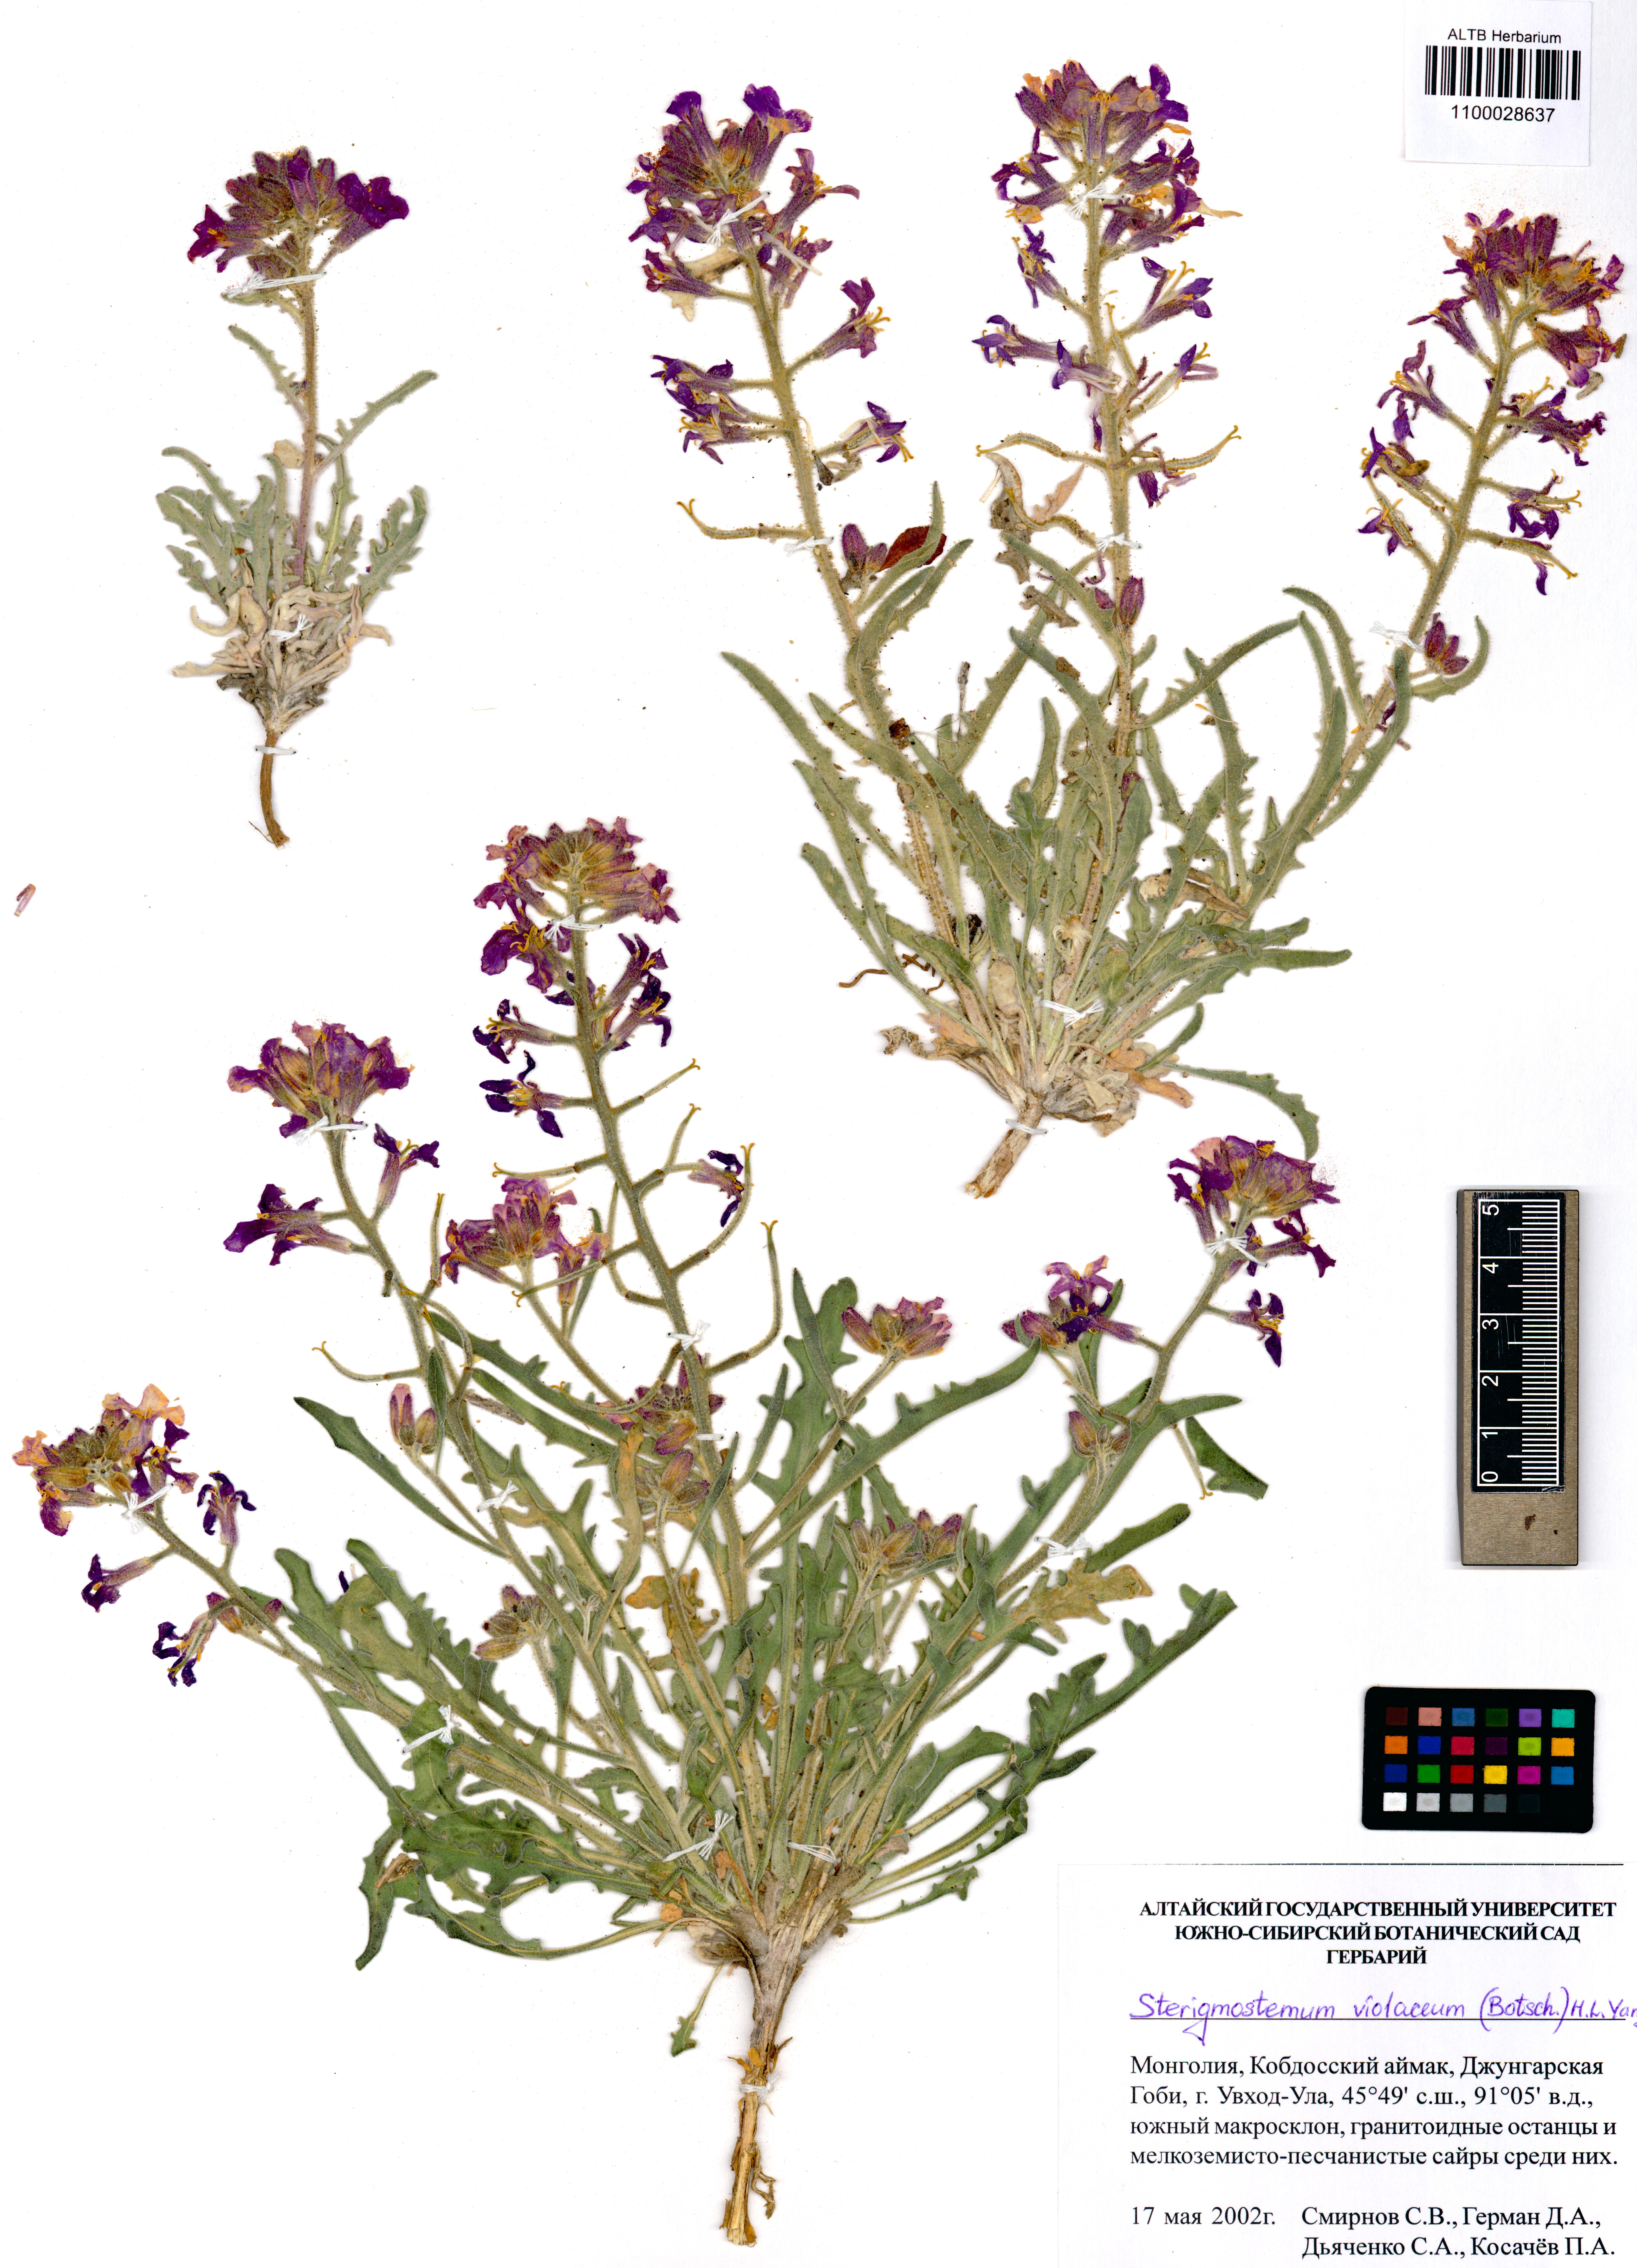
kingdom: Plantae
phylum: Tracheophyta
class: Magnoliopsida
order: Brassicales
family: Brassicaceae
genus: Sterigmostemum
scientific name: Sterigmostemum violaceum
